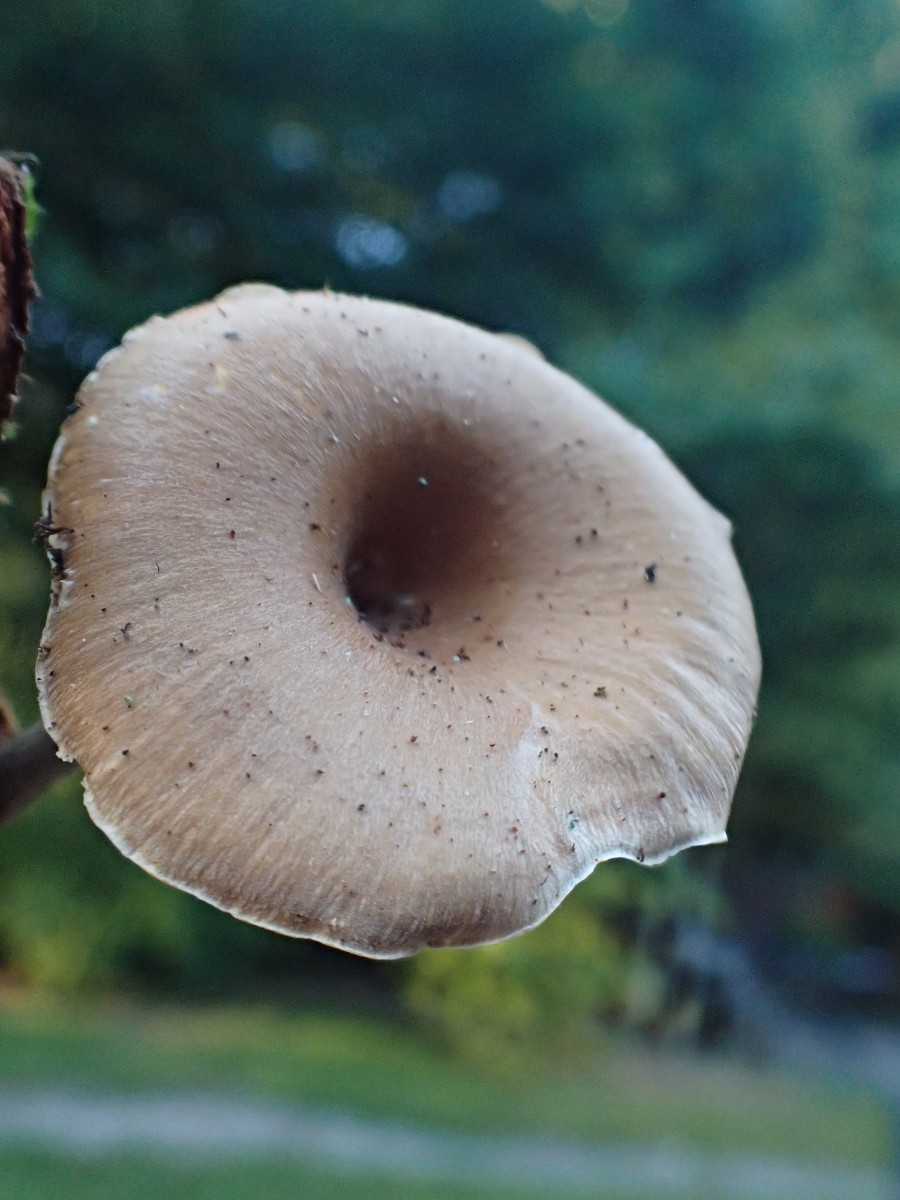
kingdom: Fungi
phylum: Basidiomycota
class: Agaricomycetes
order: Polyporales
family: Polyporaceae
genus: Picipes
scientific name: Picipes tubaeformis
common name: trompet-stilkporesvamp
